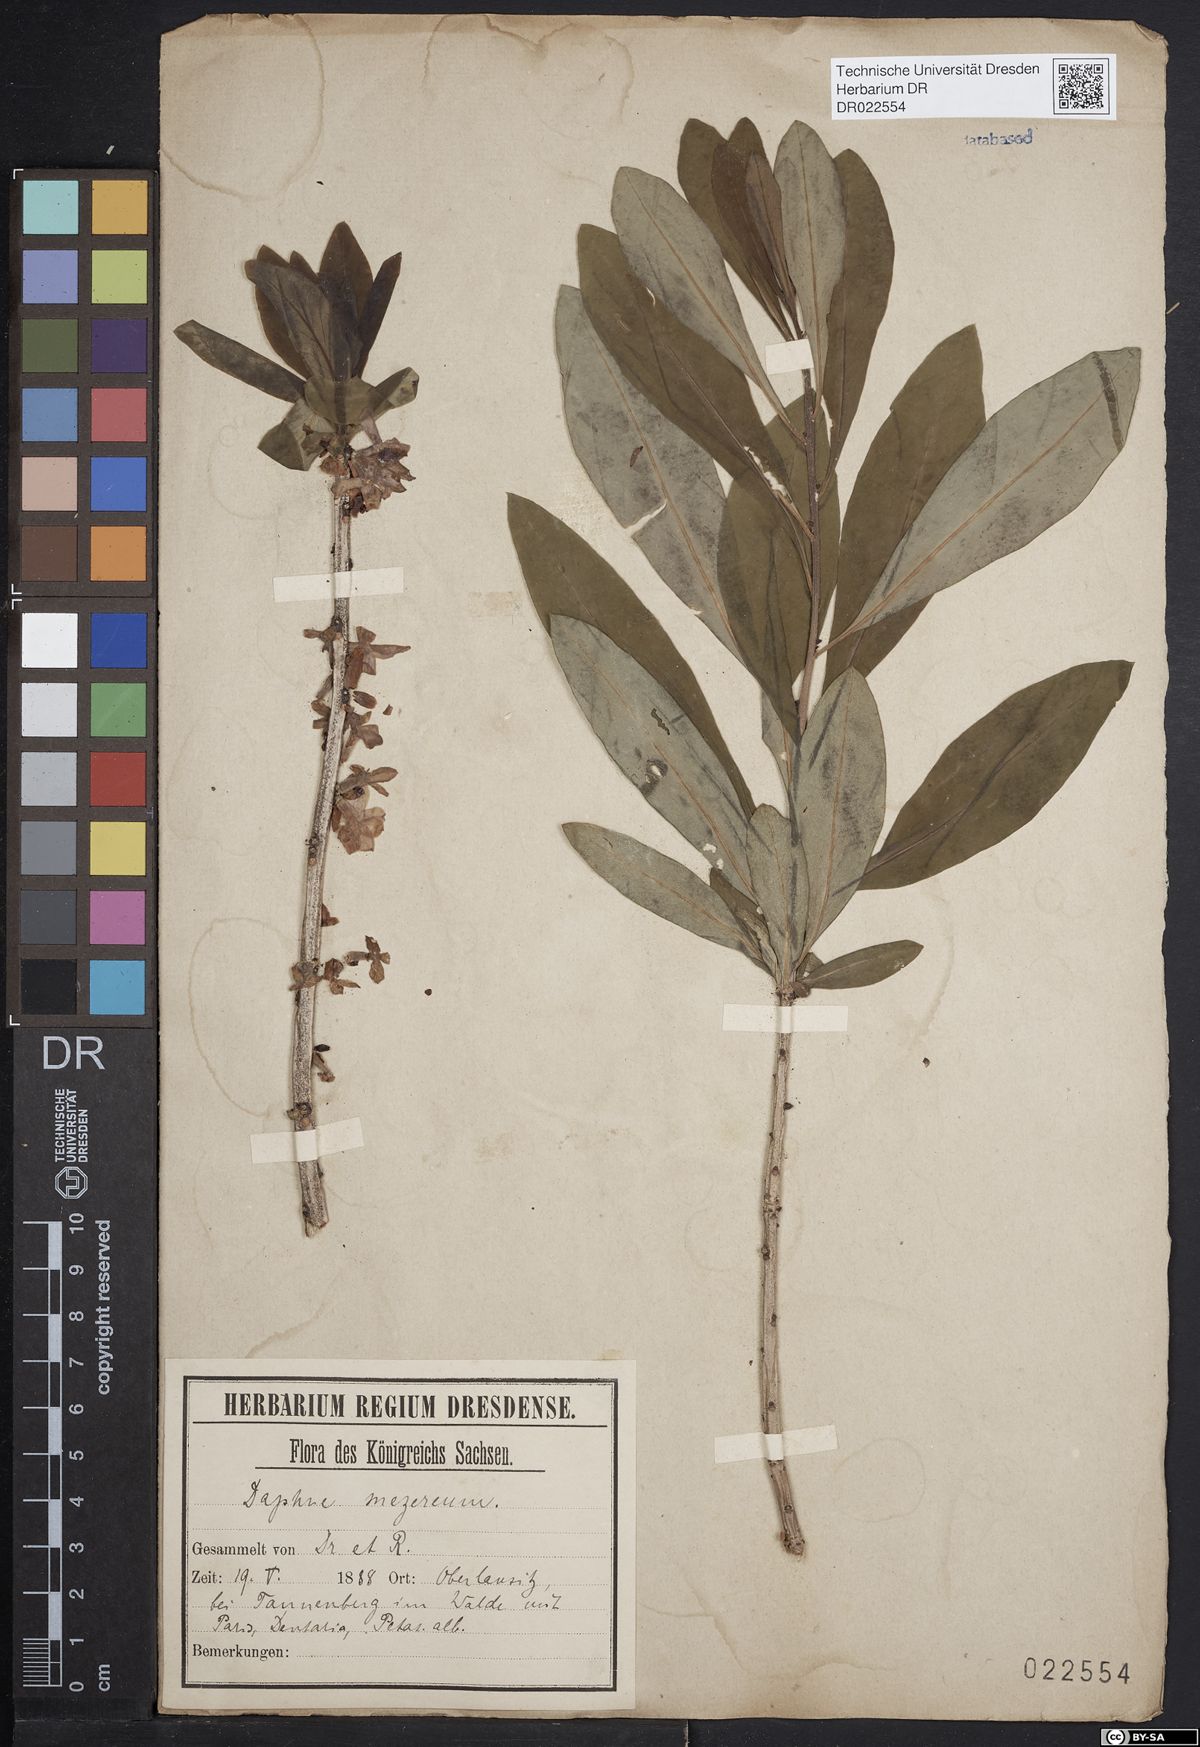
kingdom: Plantae
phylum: Tracheophyta
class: Magnoliopsida
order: Malvales
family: Thymelaeaceae
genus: Daphne
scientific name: Daphne mezereum
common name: Mezereon
